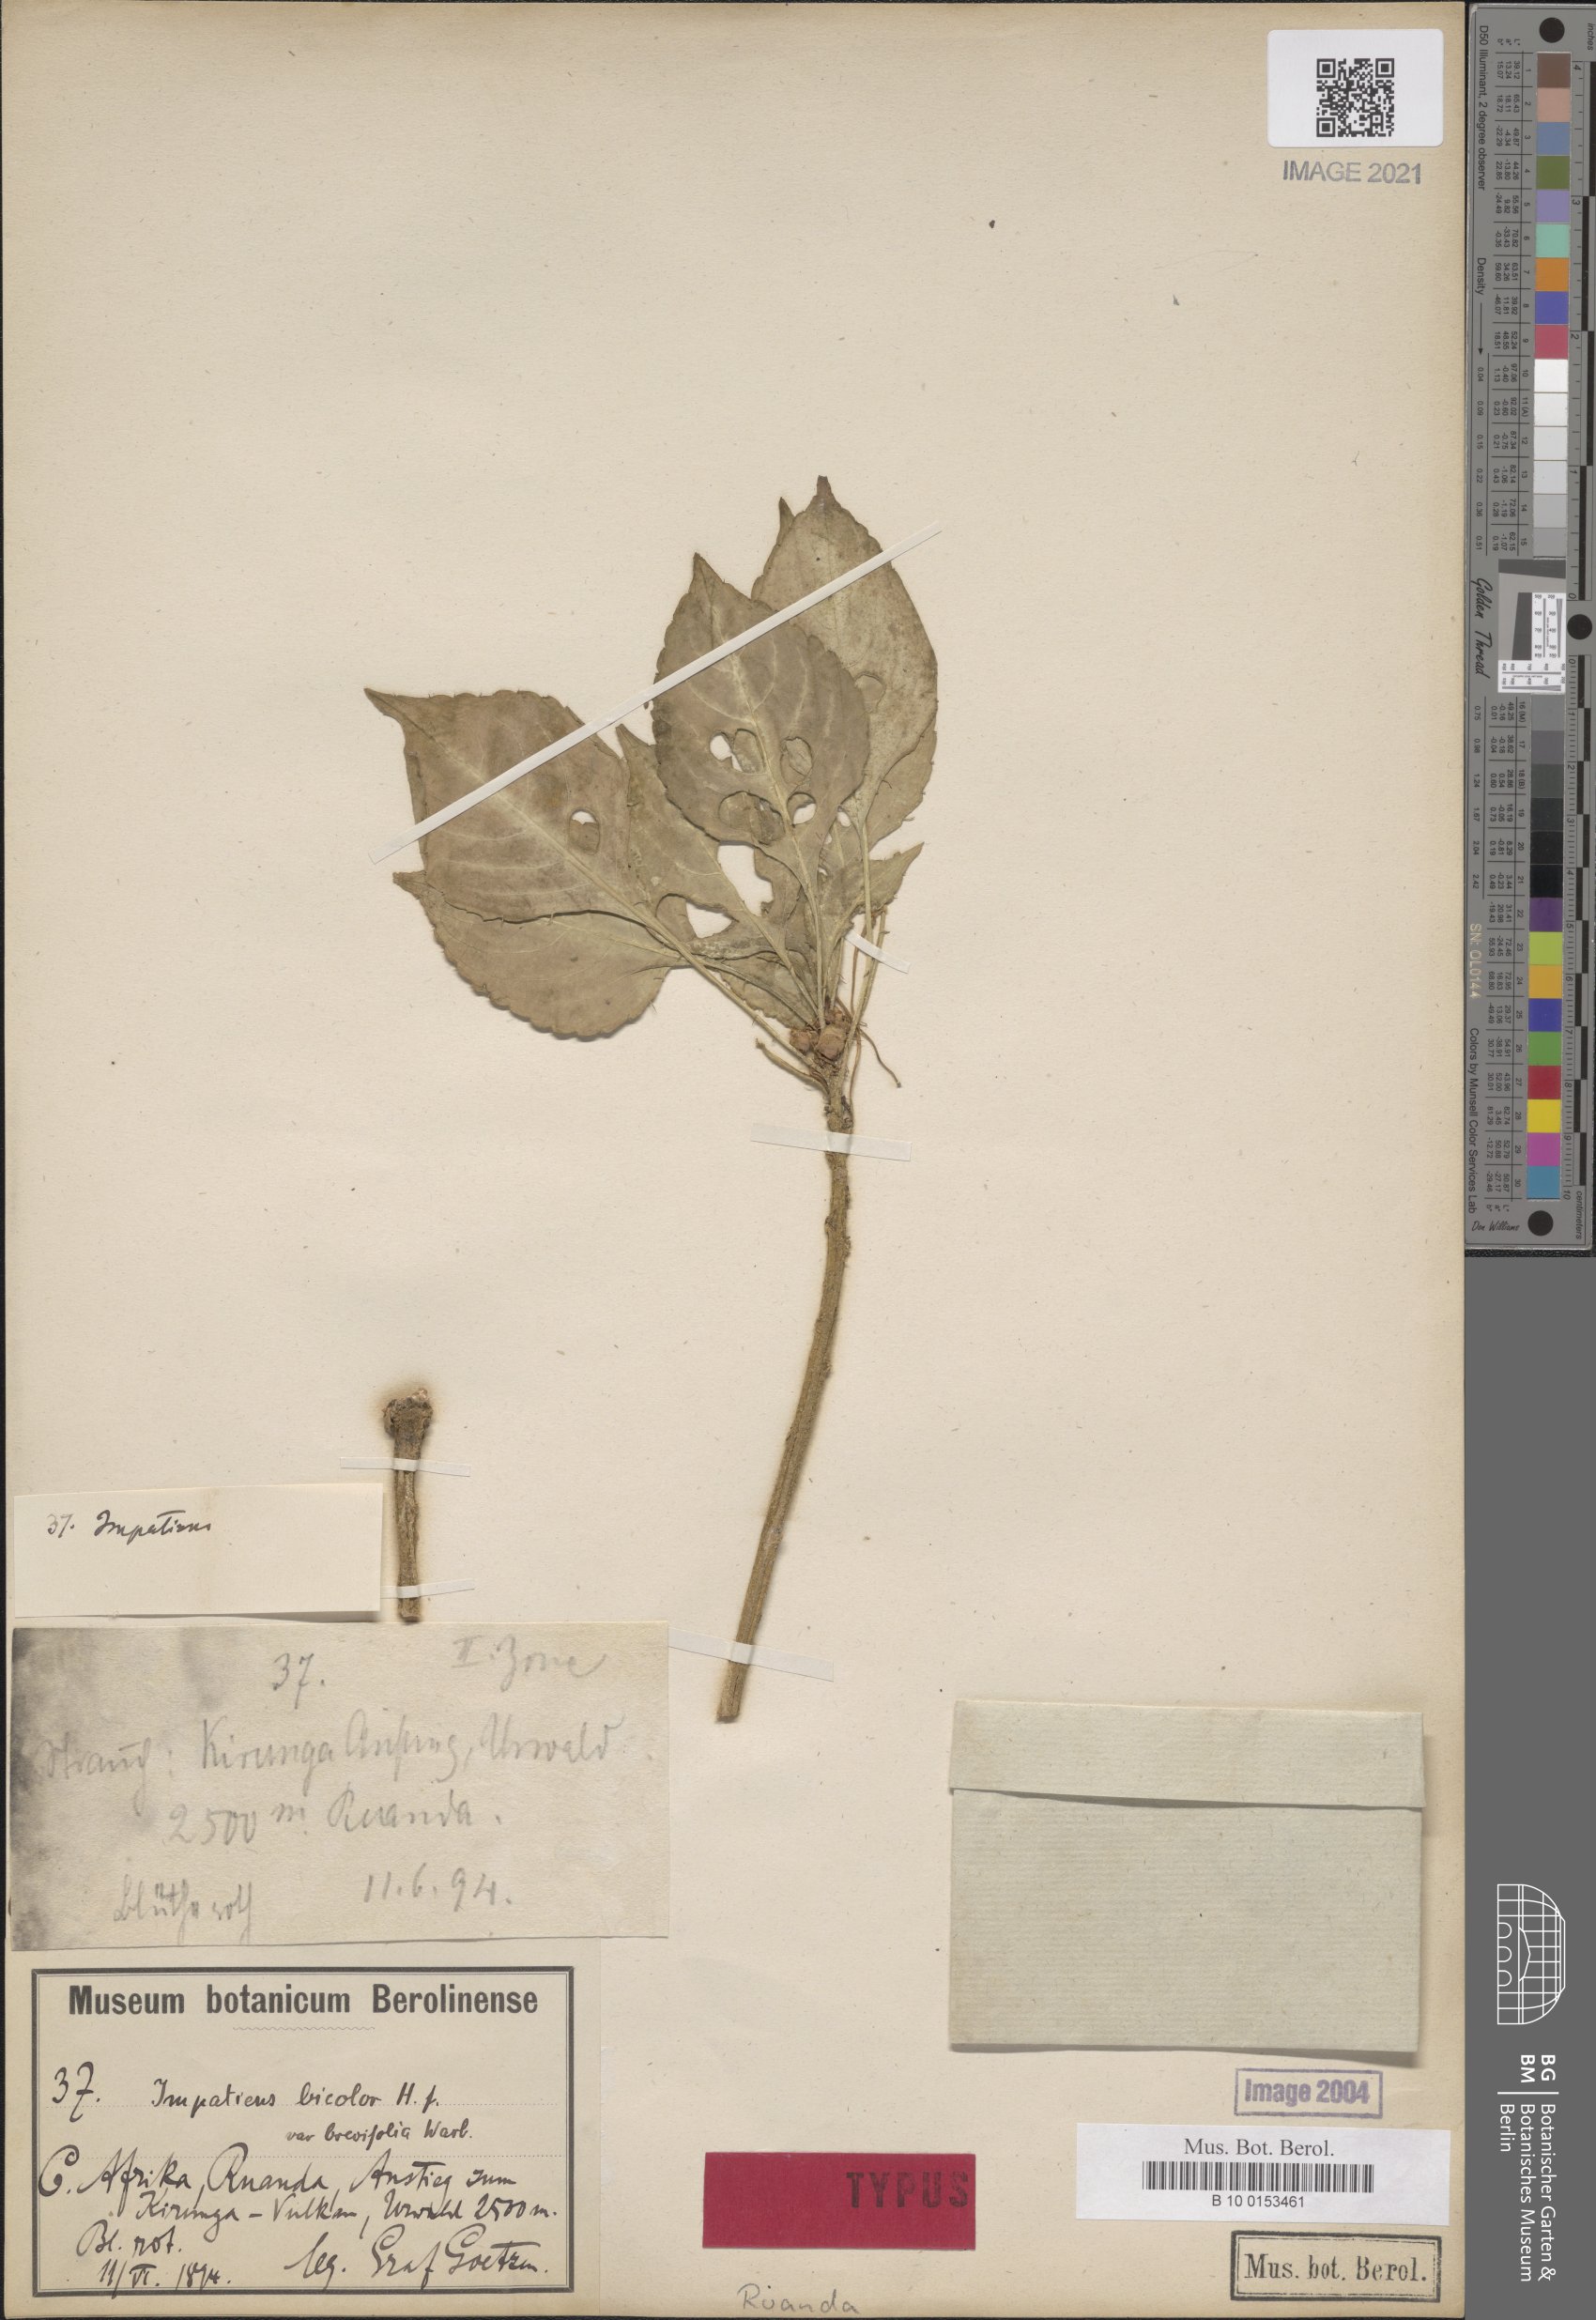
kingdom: Plantae
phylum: Tracheophyta
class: Magnoliopsida
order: Ericales
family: Balsaminaceae
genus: Impatiens
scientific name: Impatiens niamniamensis
